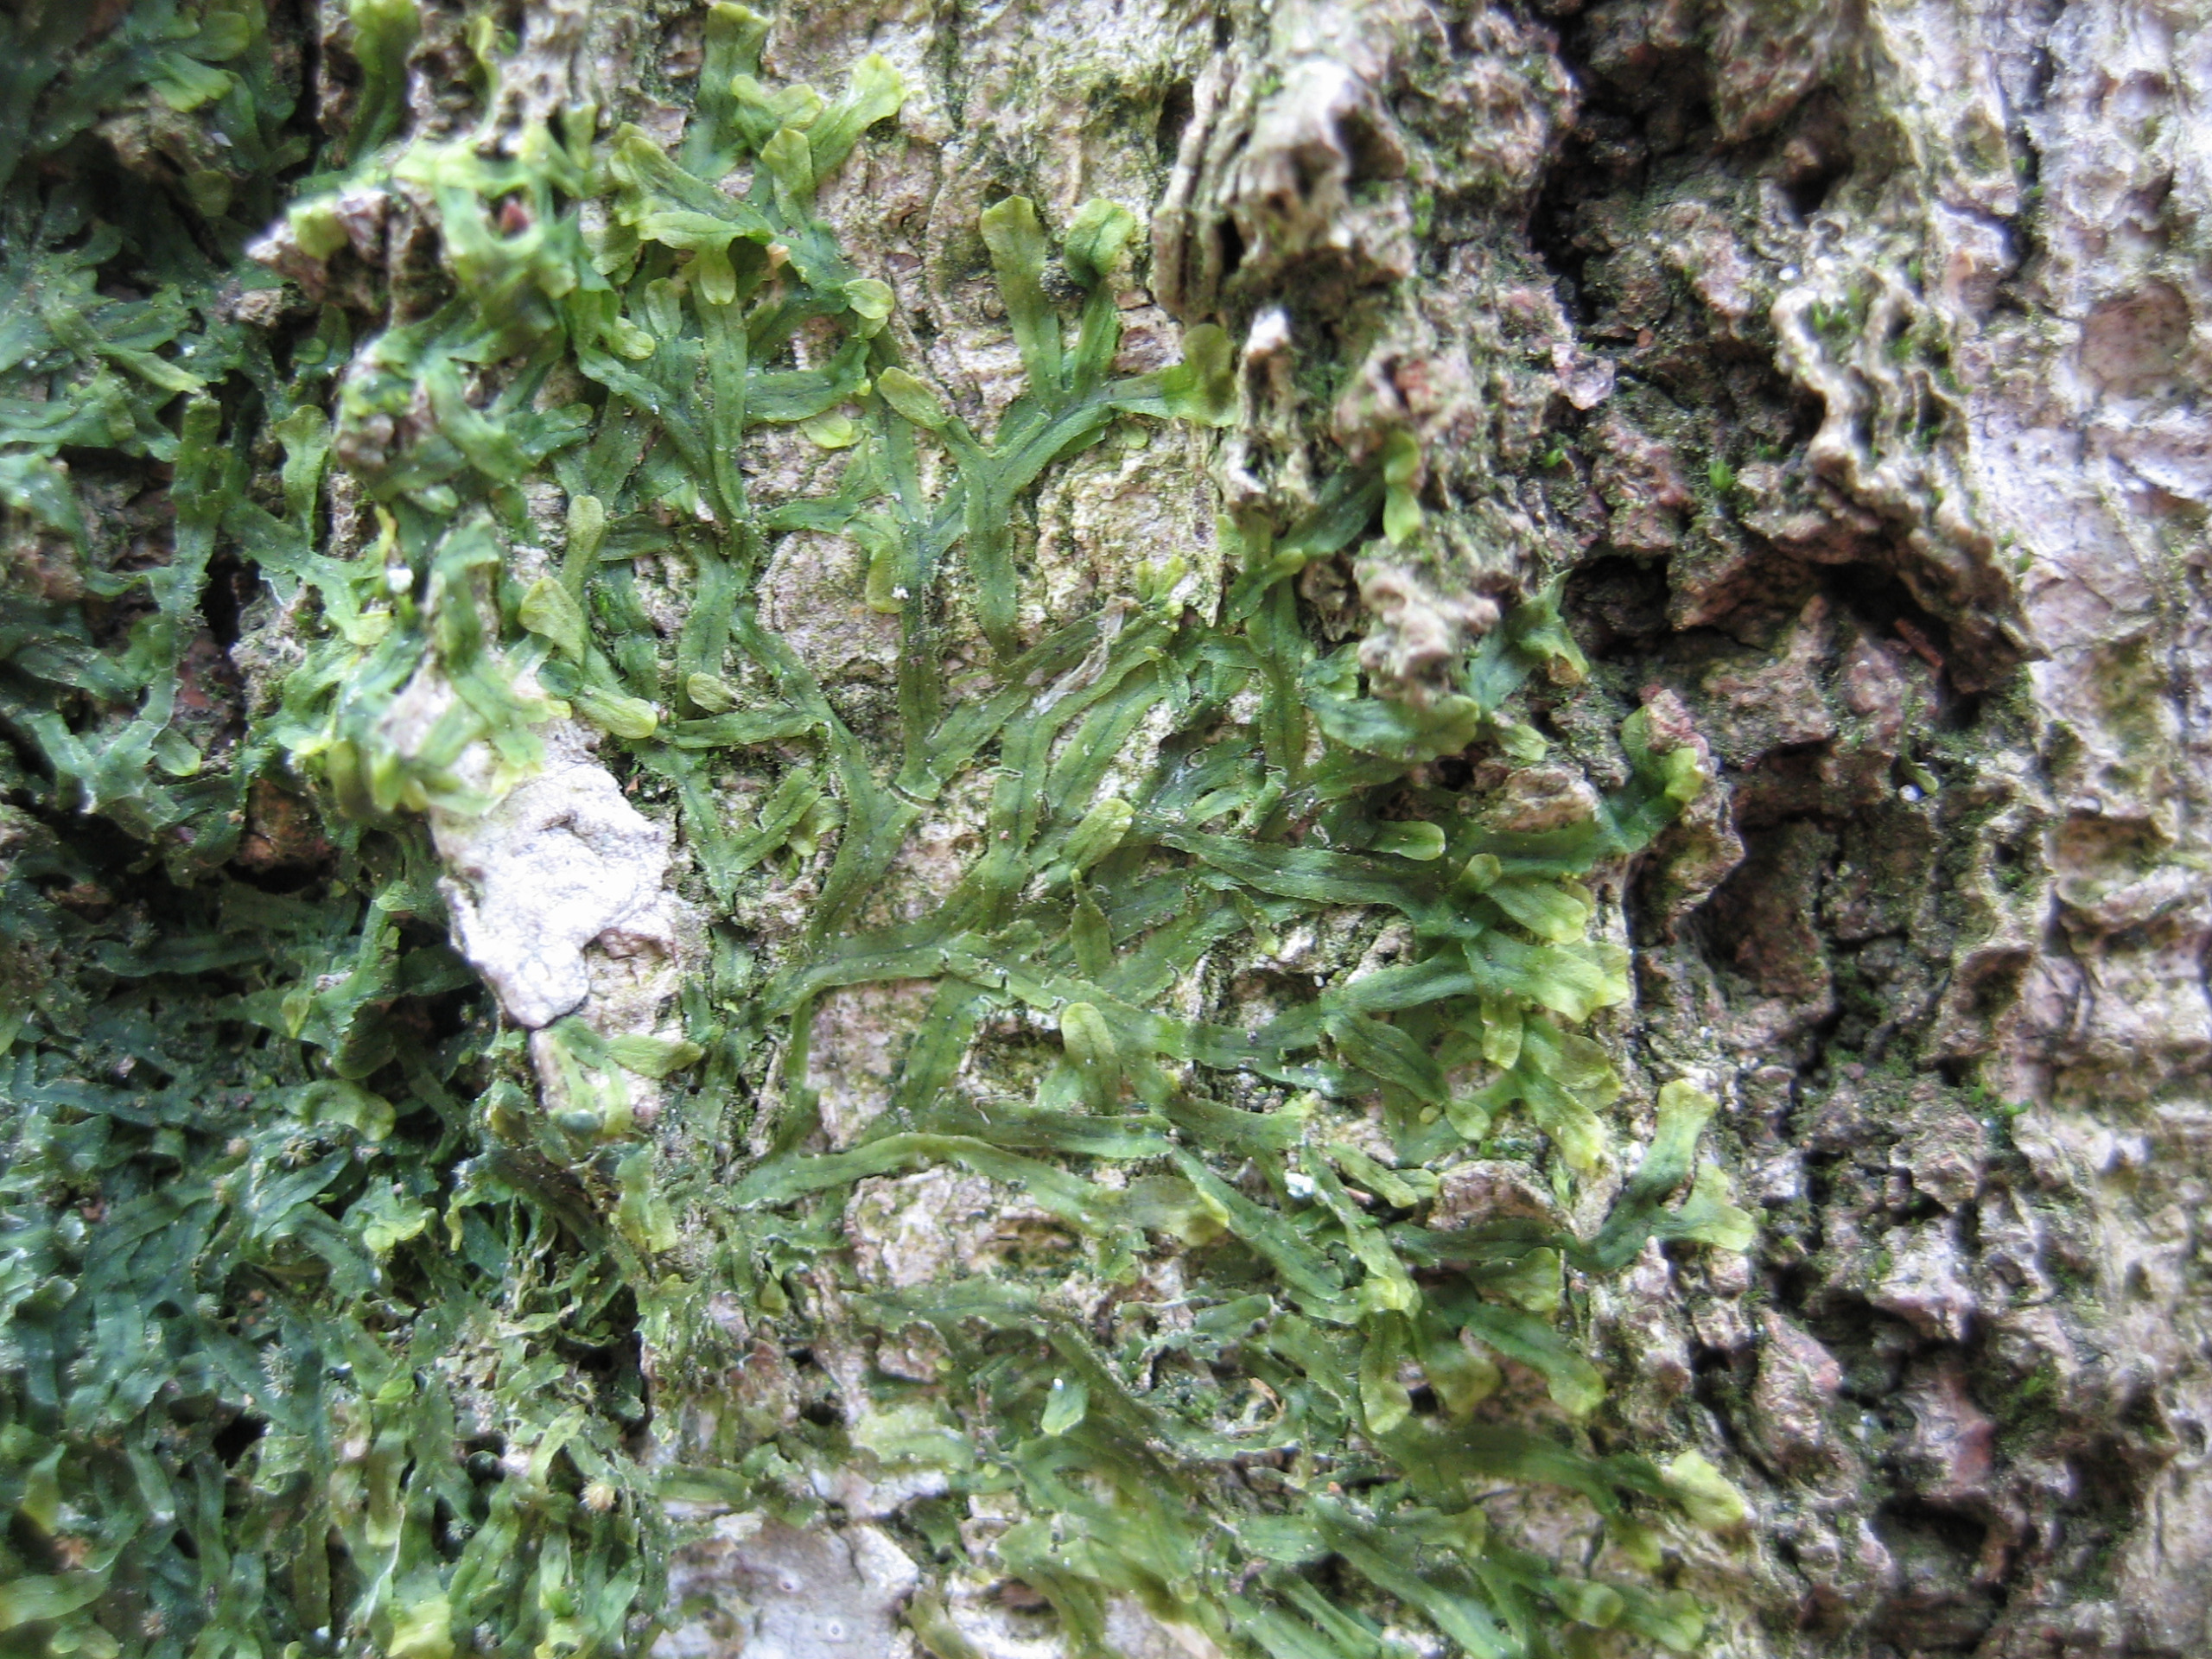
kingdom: Plantae
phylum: Marchantiophyta
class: Jungermanniopsida
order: Metzgeriales
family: Metzgeriaceae
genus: Metzgeria
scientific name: Metzgeria furcata
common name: Almindelig gaffelløv
